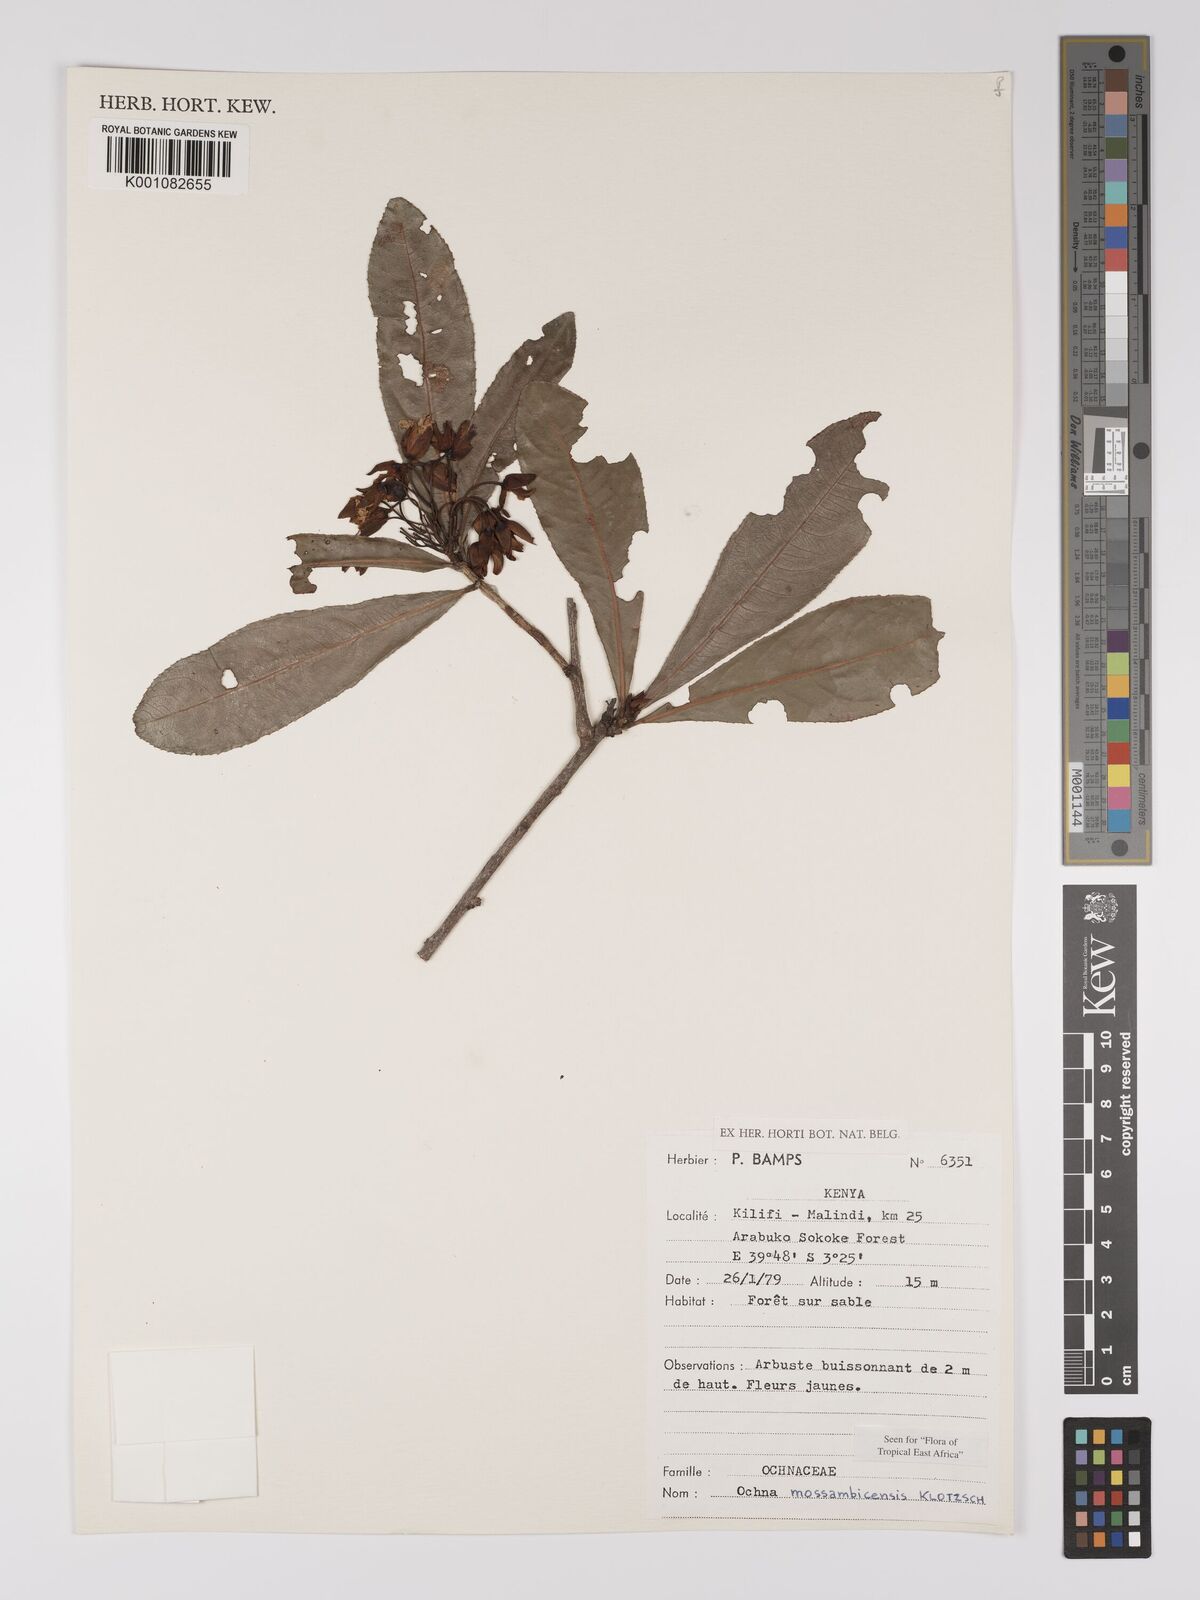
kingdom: Plantae
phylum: Tracheophyta
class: Magnoliopsida
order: Malpighiales
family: Ochnaceae
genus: Ochna
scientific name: Ochna atropurpurea
